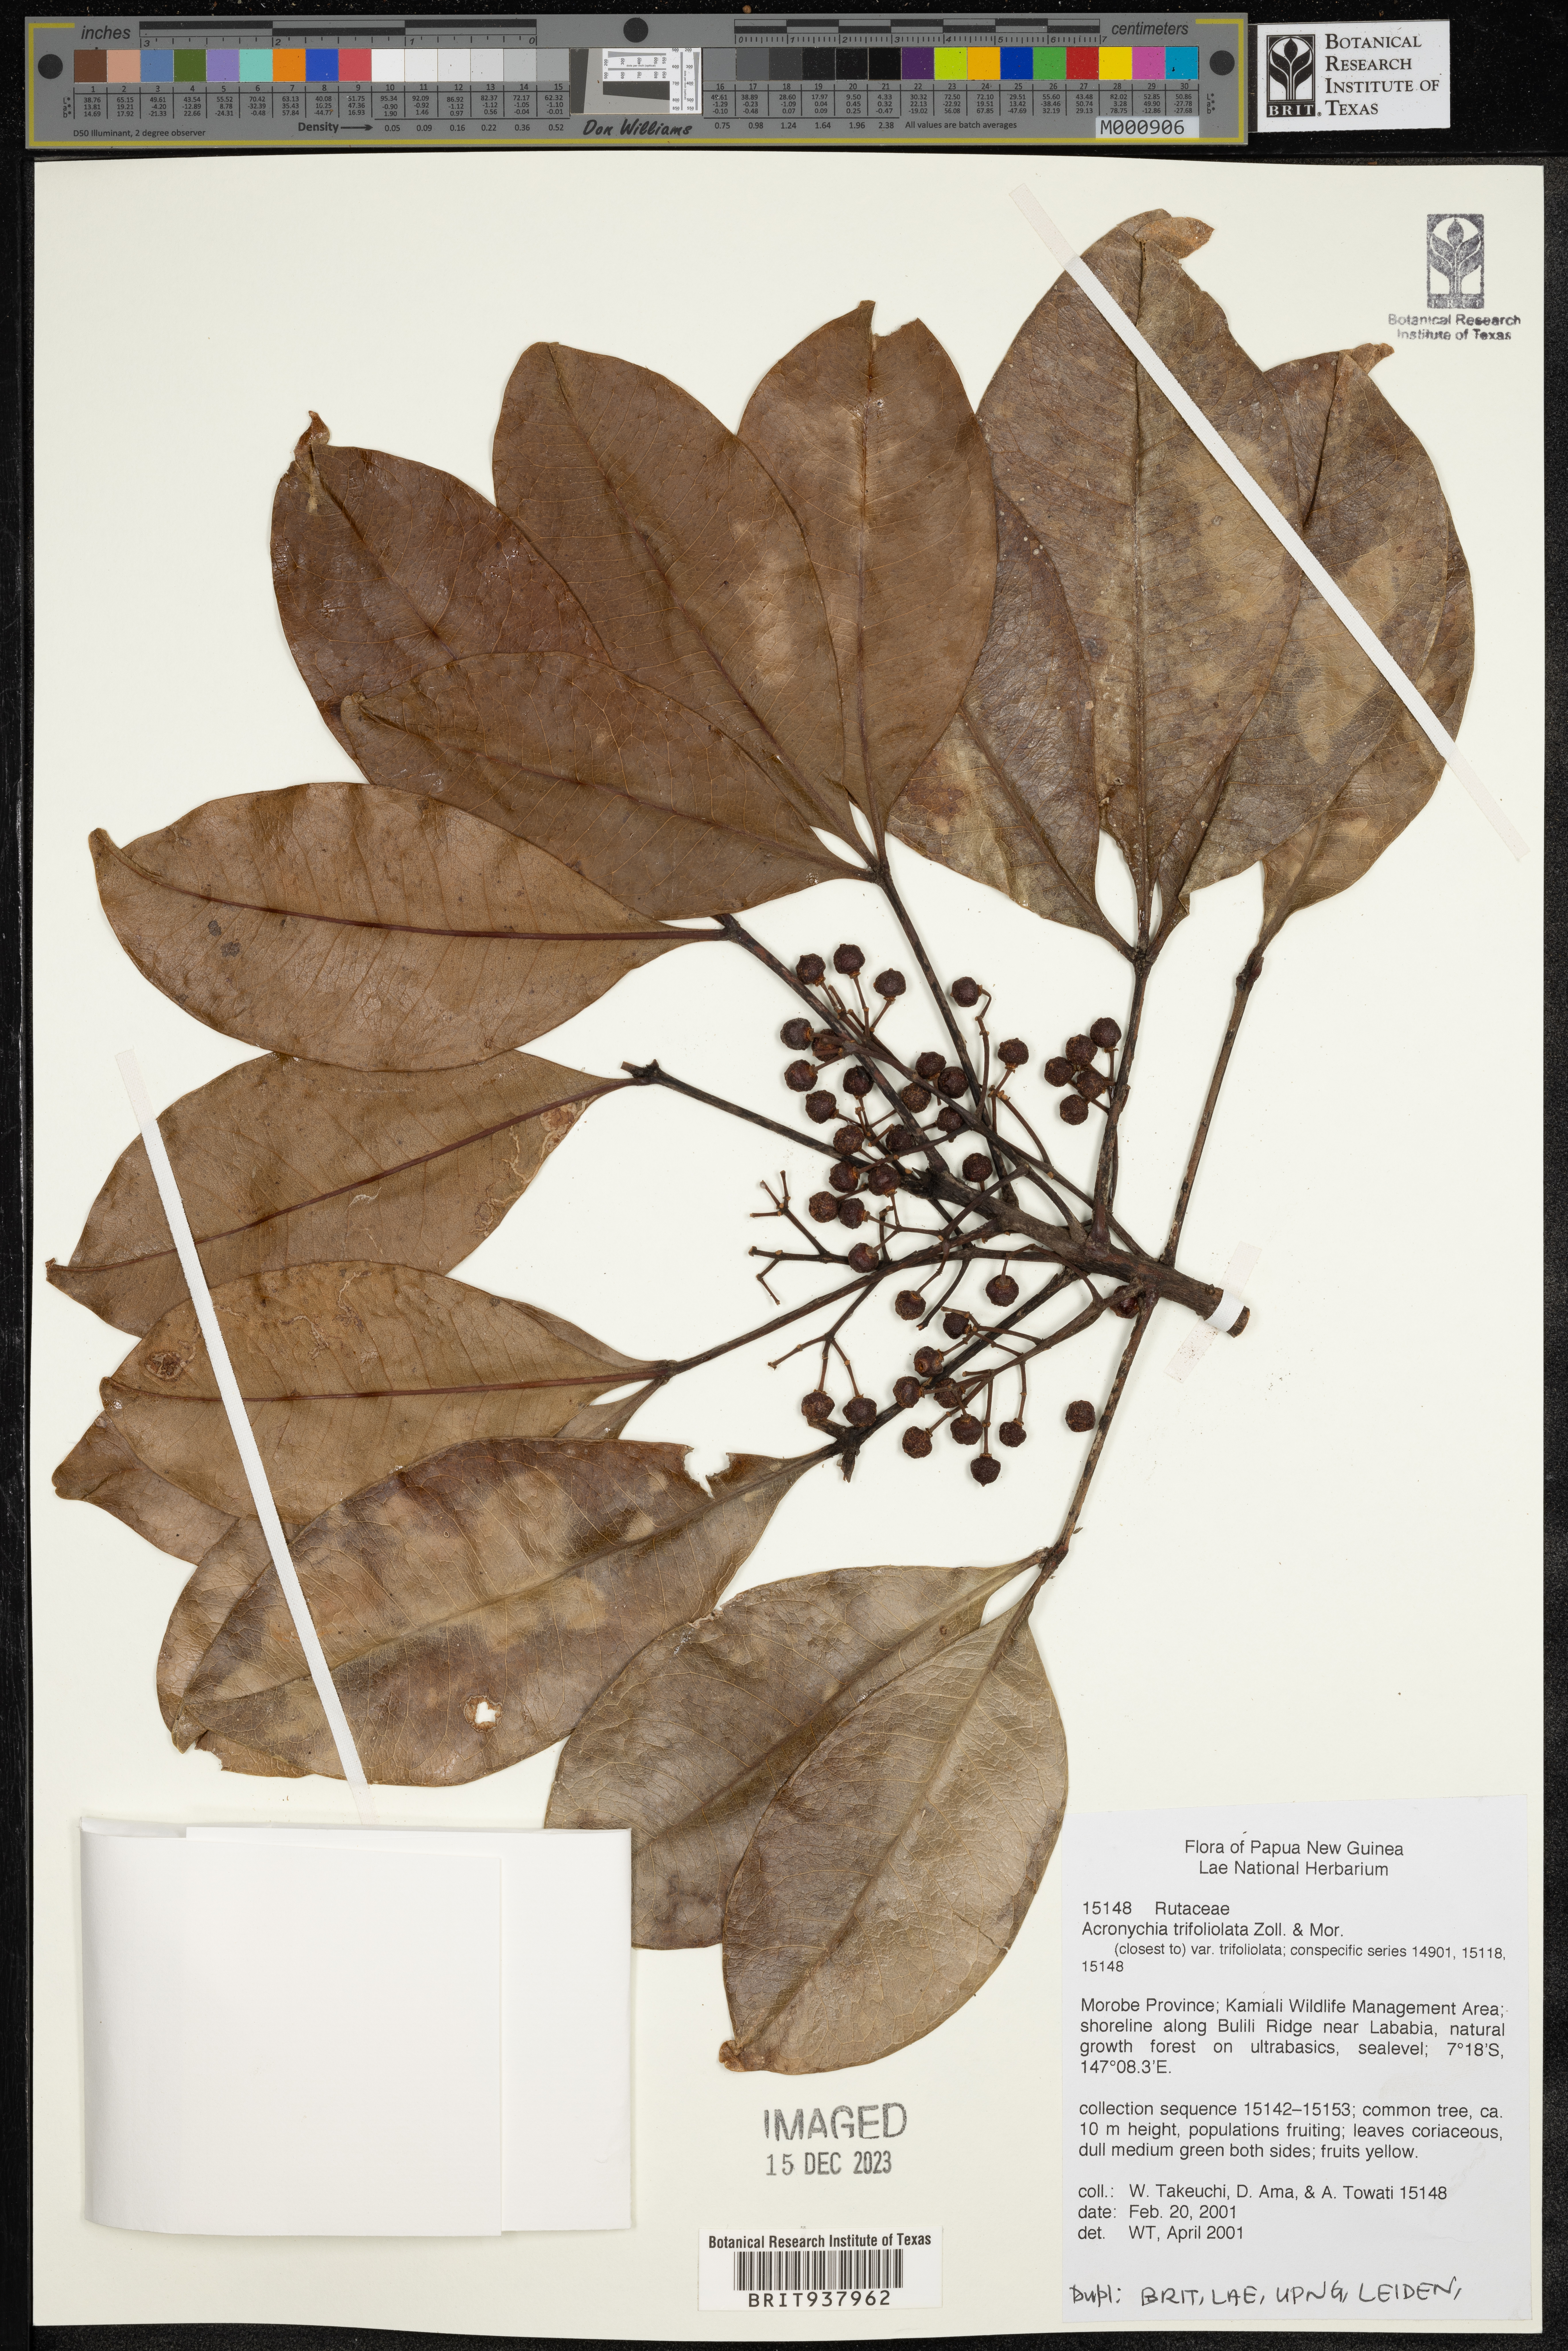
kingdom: Plantae
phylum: Tracheophyta
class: Magnoliopsida
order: Sapindales
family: Rutaceae
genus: Acronychia
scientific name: Acronychia
